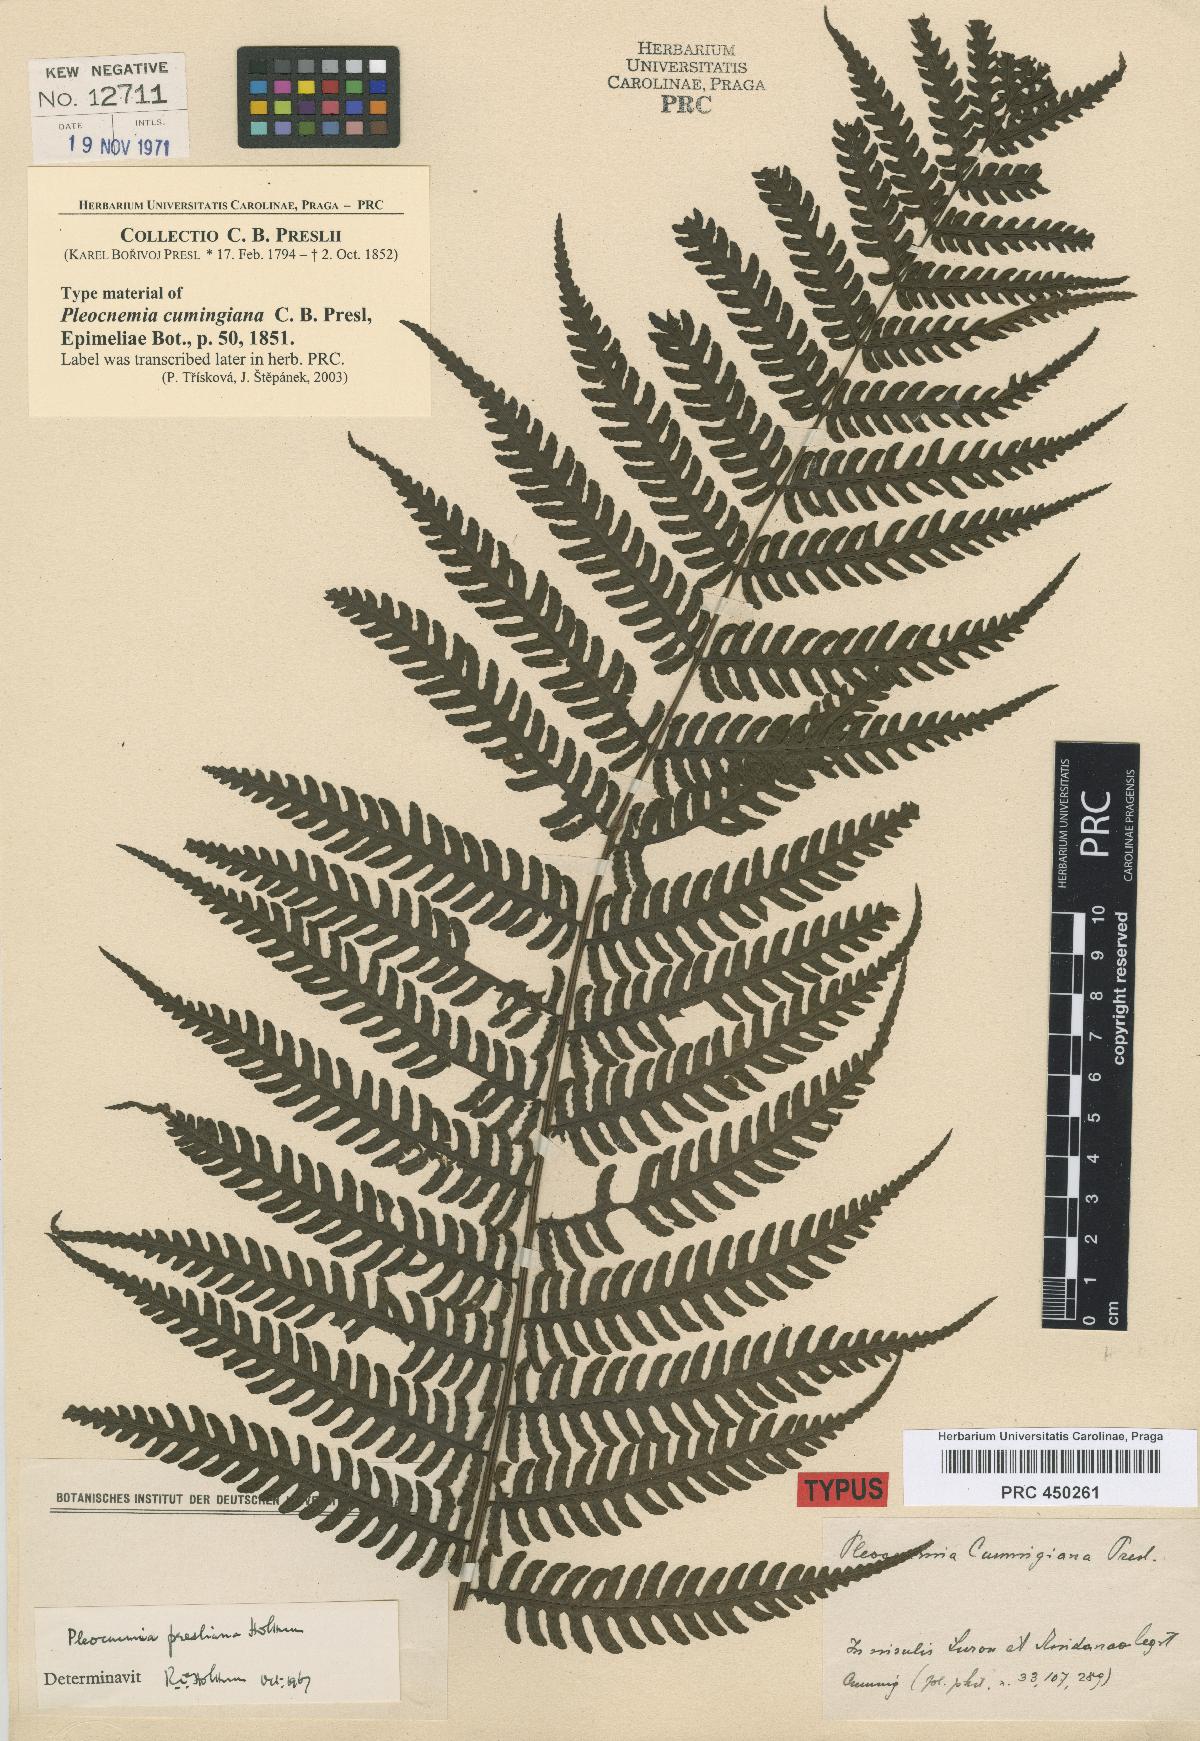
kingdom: Plantae
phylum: Tracheophyta
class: Polypodiopsida
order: Polypodiales
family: Dryopteridaceae
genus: Pleocnemia
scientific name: Pleocnemia cumingiana
